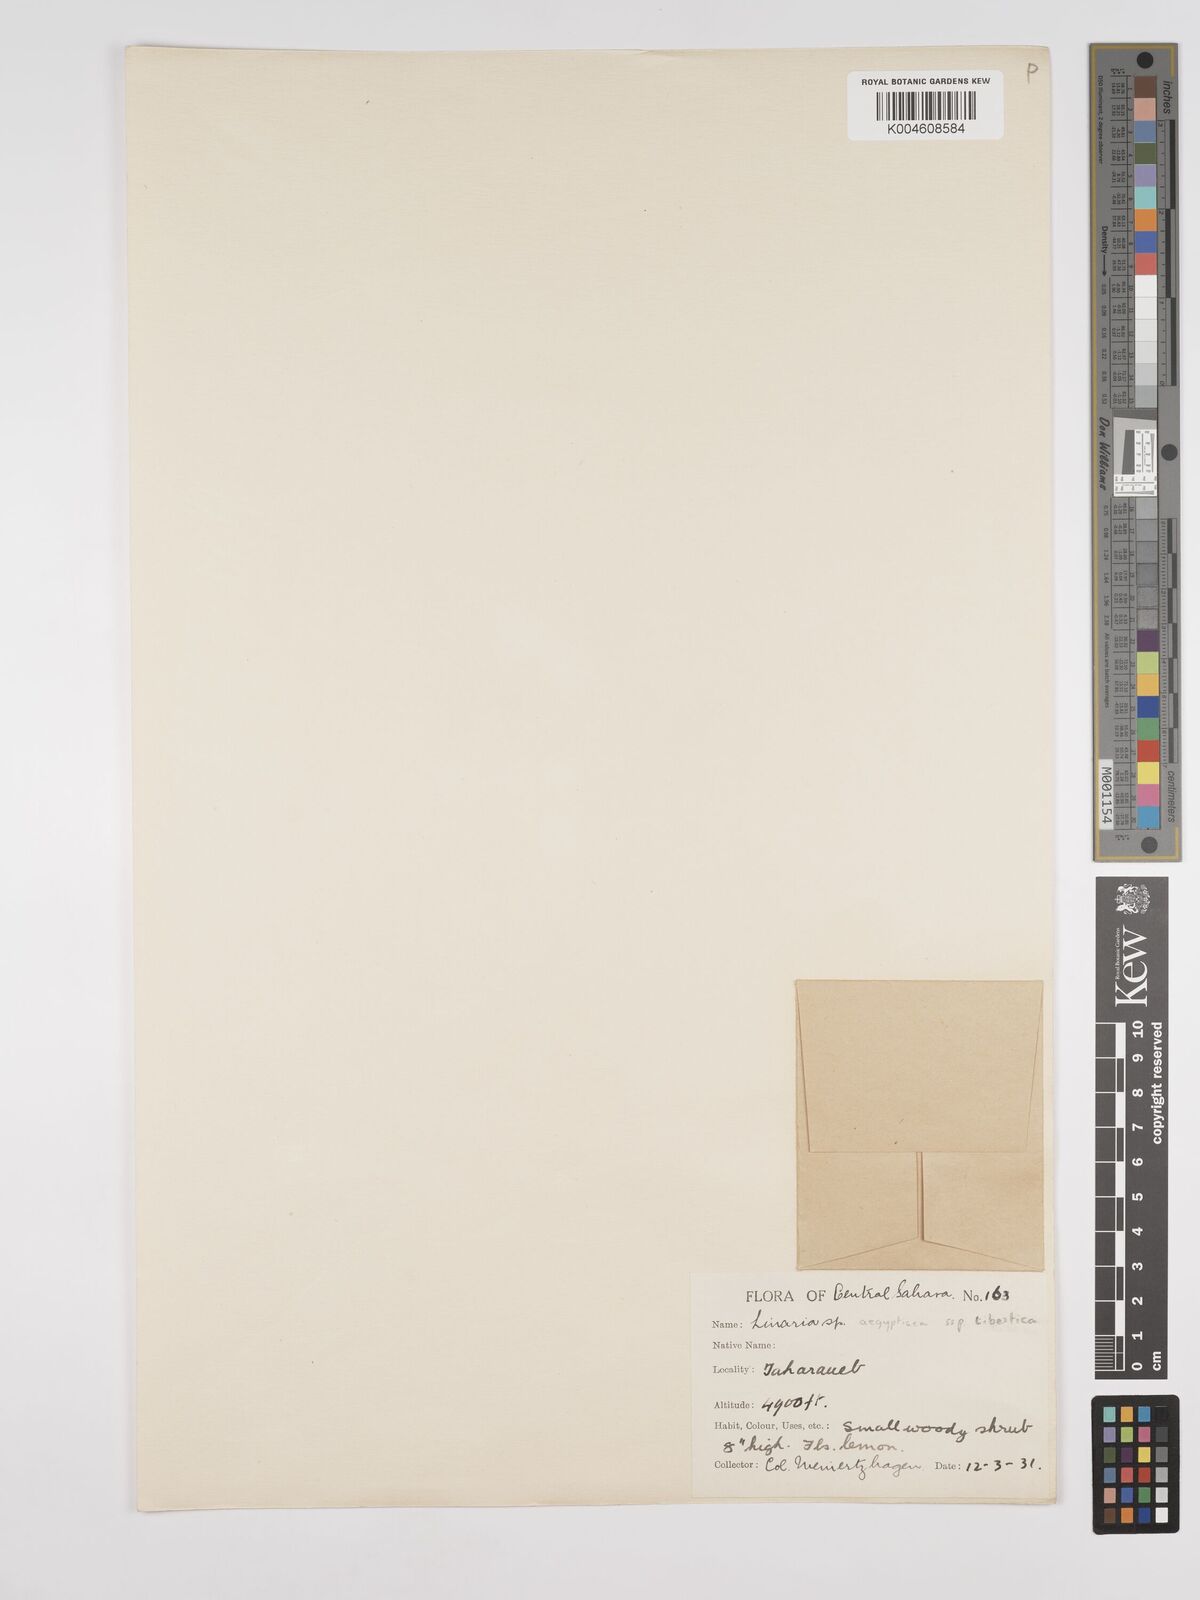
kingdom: Plantae
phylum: Tracheophyta
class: Magnoliopsida
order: Lamiales
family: Plantaginaceae
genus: Kickxia
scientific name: Kickxia aegyptiaca
